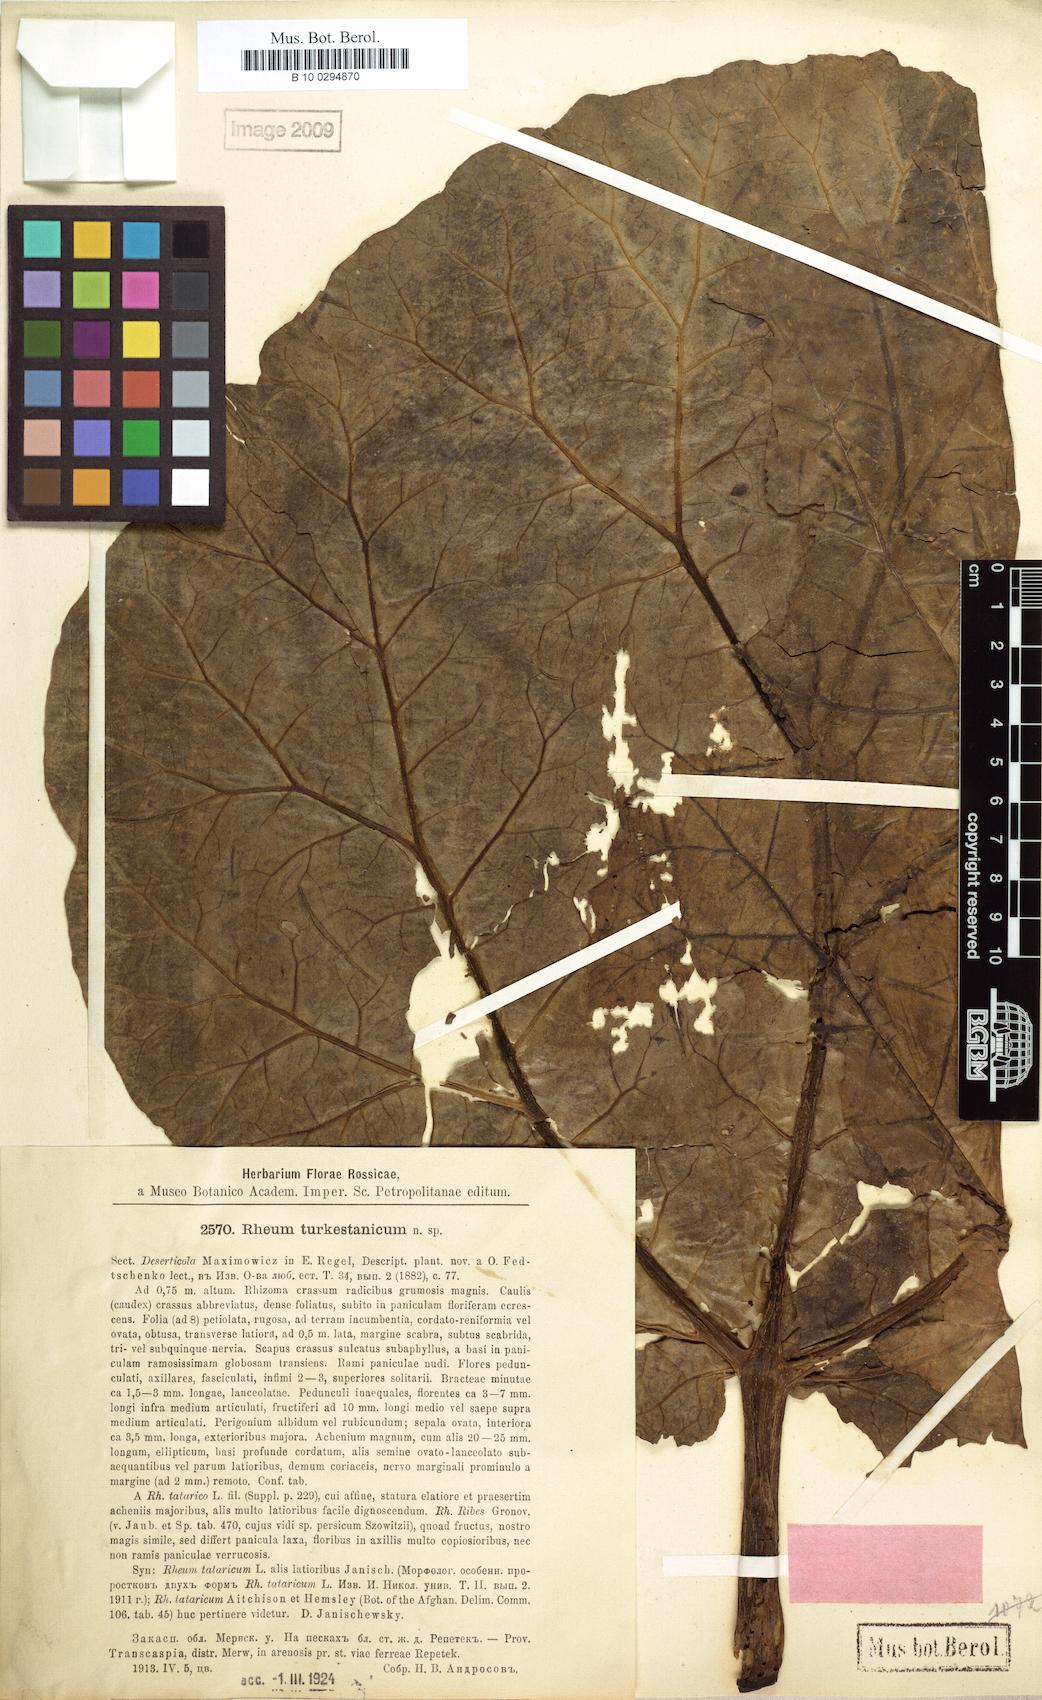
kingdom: Plantae
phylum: Tracheophyta
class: Magnoliopsida
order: Caryophyllales
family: Polygonaceae
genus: Rheum
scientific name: Rheum turkestanicum
